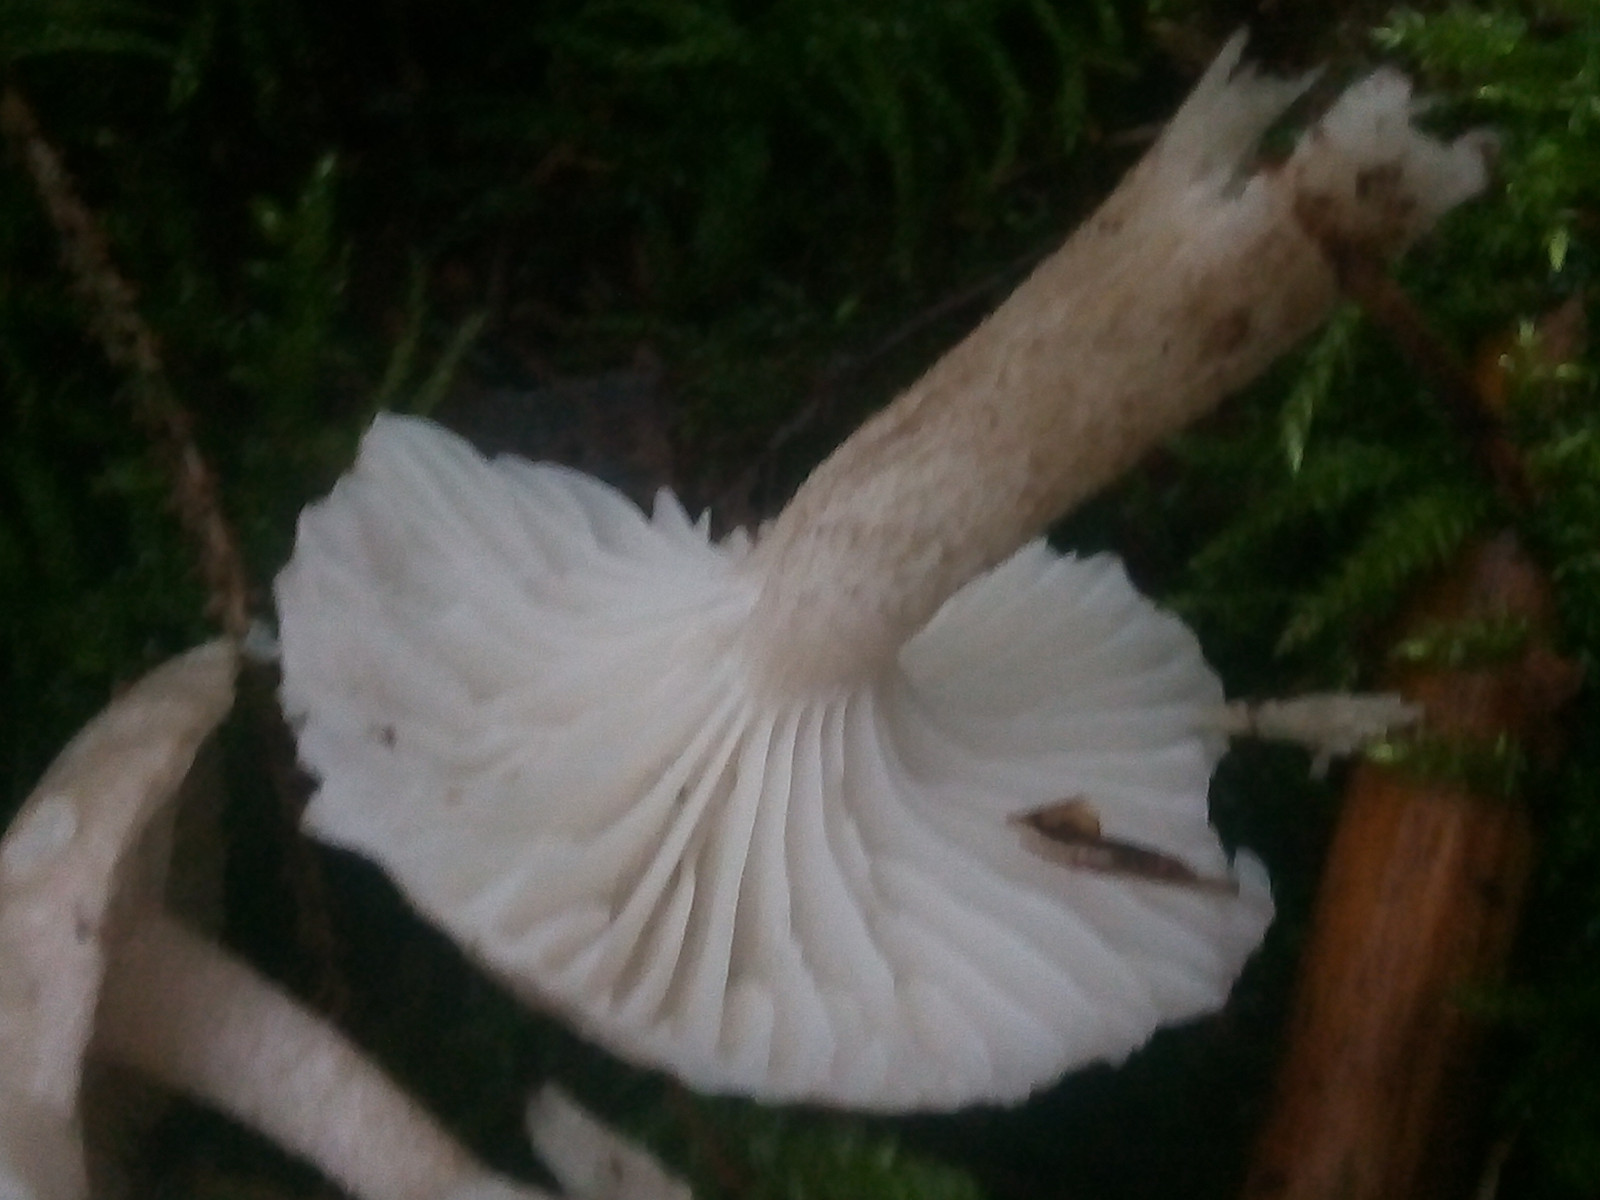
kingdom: Fungi
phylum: Basidiomycota
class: Agaricomycetes
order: Agaricales
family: Hygrophoraceae
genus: Hygrophorus
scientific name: Hygrophorus pustulatus
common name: mørkprikket sneglehat
